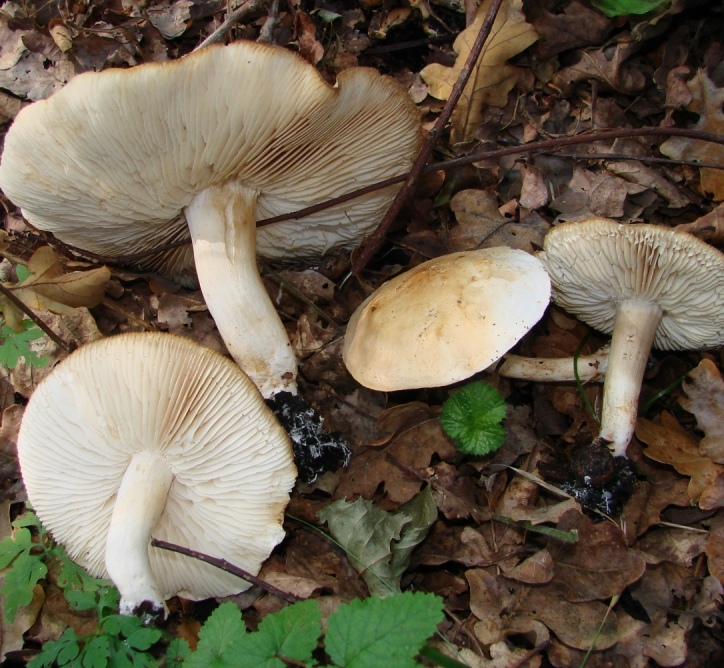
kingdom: Fungi
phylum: Basidiomycota
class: Agaricomycetes
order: Agaricales
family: Tricholomataceae
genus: Tricholoma
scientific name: Tricholoma album
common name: honning-ridderhat
